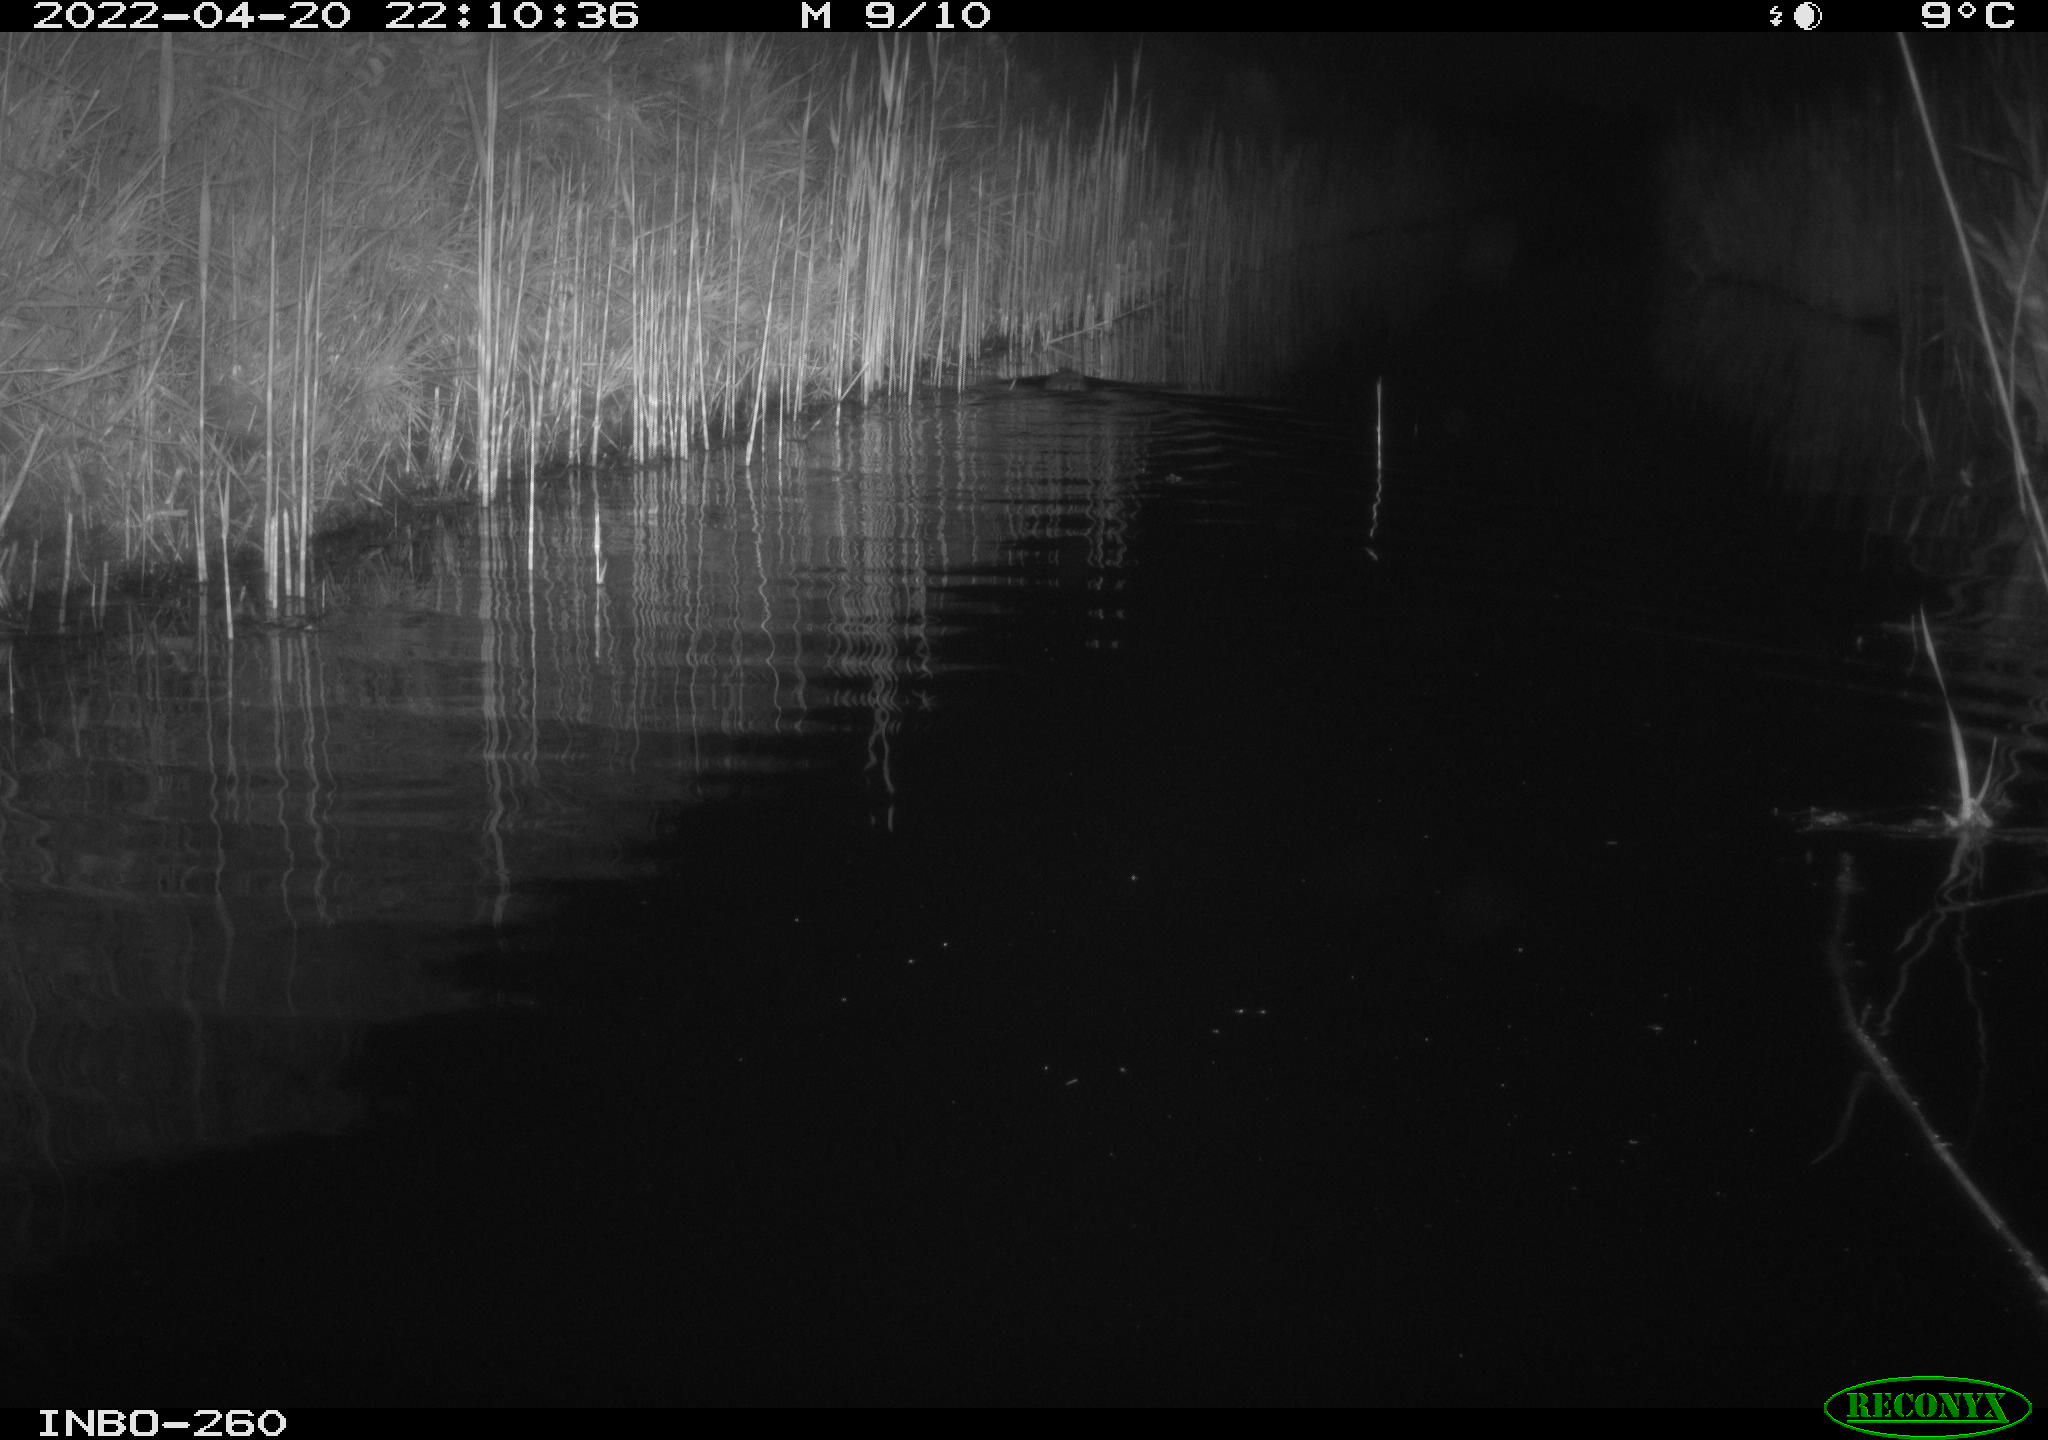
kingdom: Animalia
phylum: Chordata
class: Mammalia
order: Rodentia
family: Cricetidae
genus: Ondatra
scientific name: Ondatra zibethicus
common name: Muskrat
